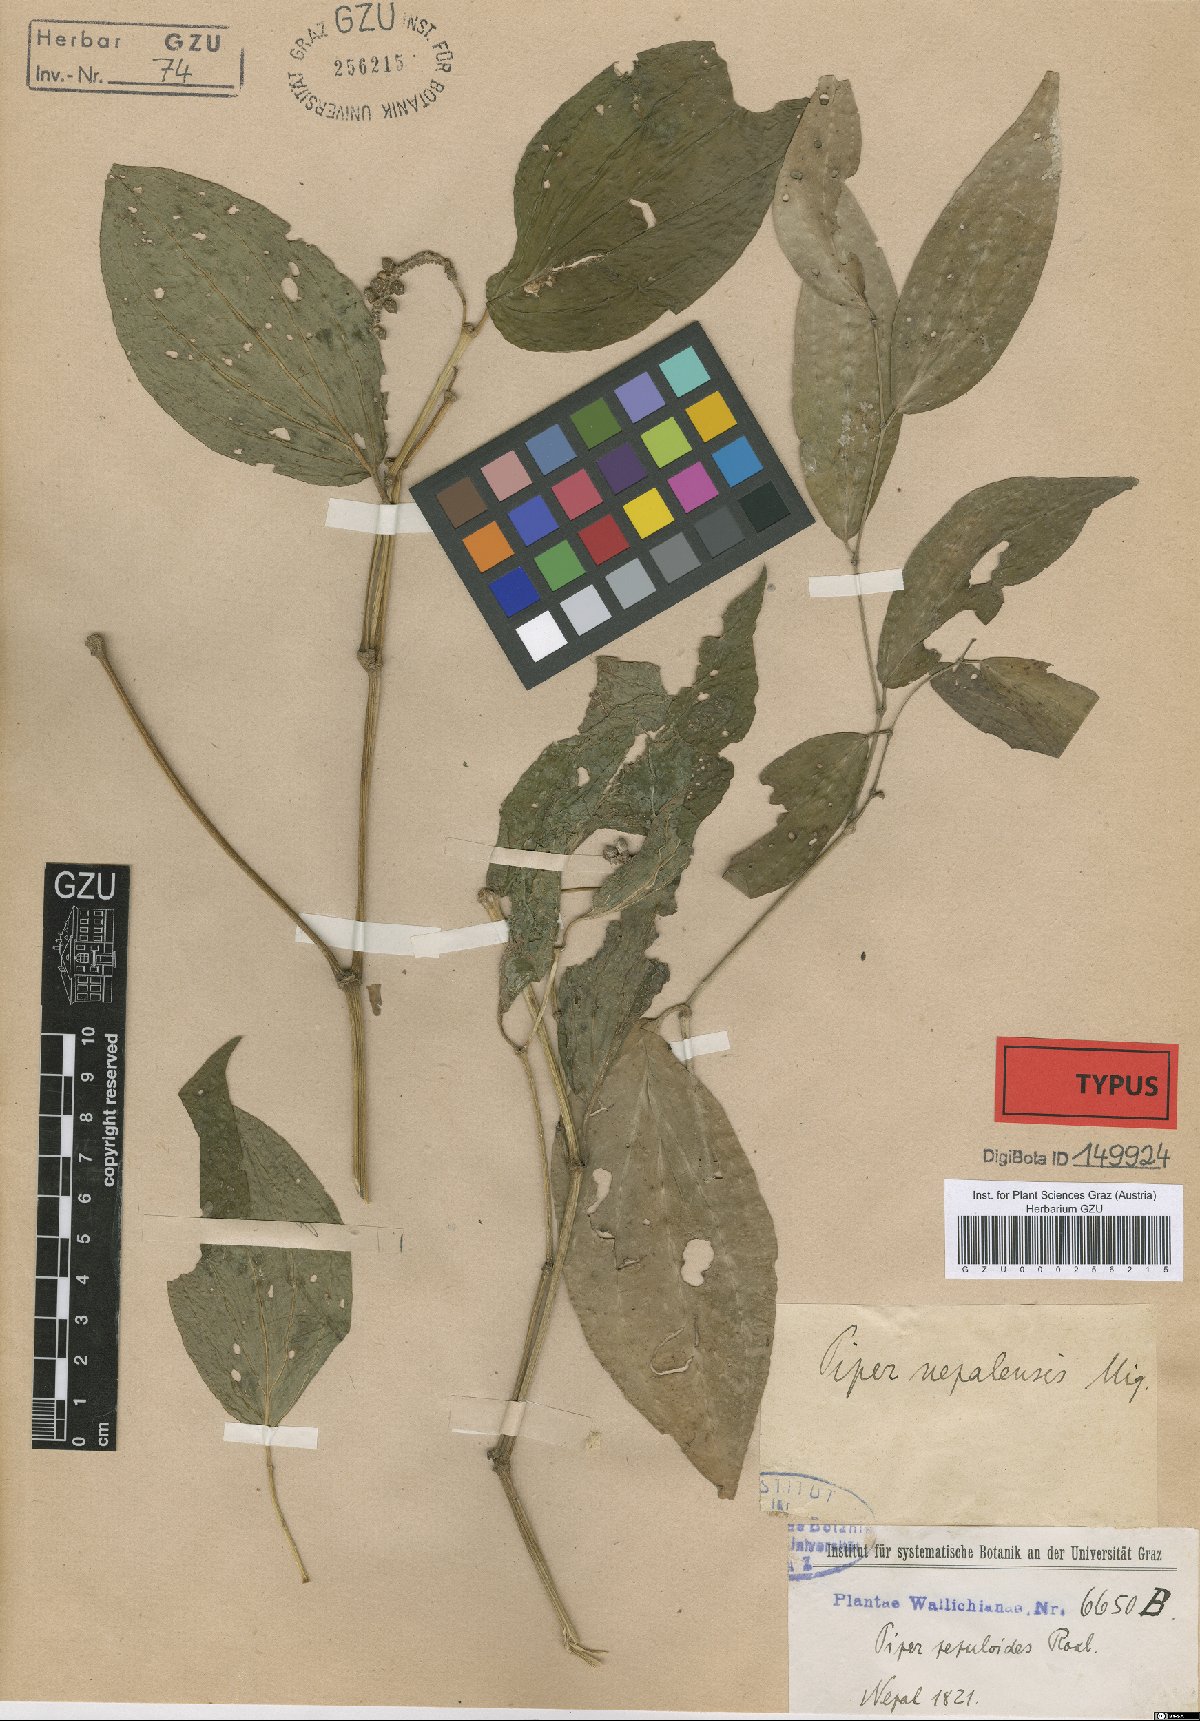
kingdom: Plantae
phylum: Tracheophyta
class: Magnoliopsida
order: Piperales
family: Piperaceae
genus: Piper
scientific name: Piper suipigua
